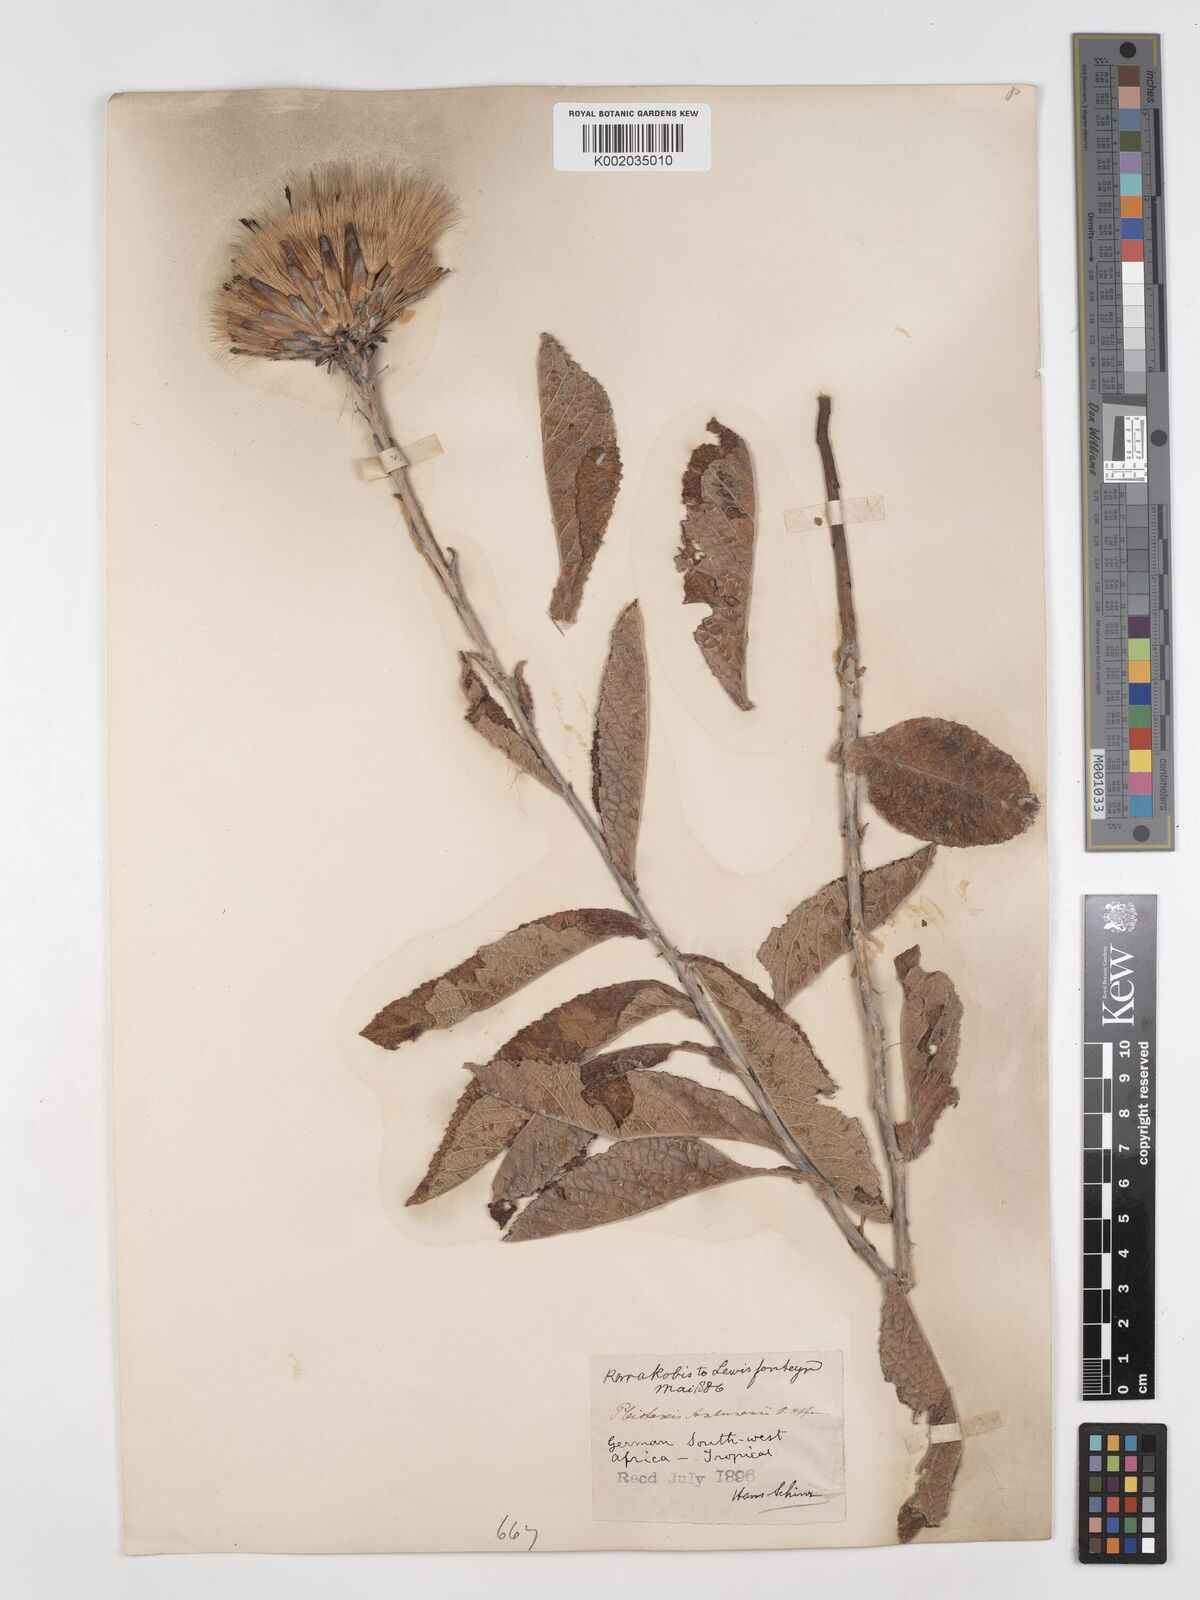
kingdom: Plantae
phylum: Tracheophyta
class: Magnoliopsida
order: Asterales
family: Asteraceae
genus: Pleiotaxis
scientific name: Pleiotaxis antunesii
